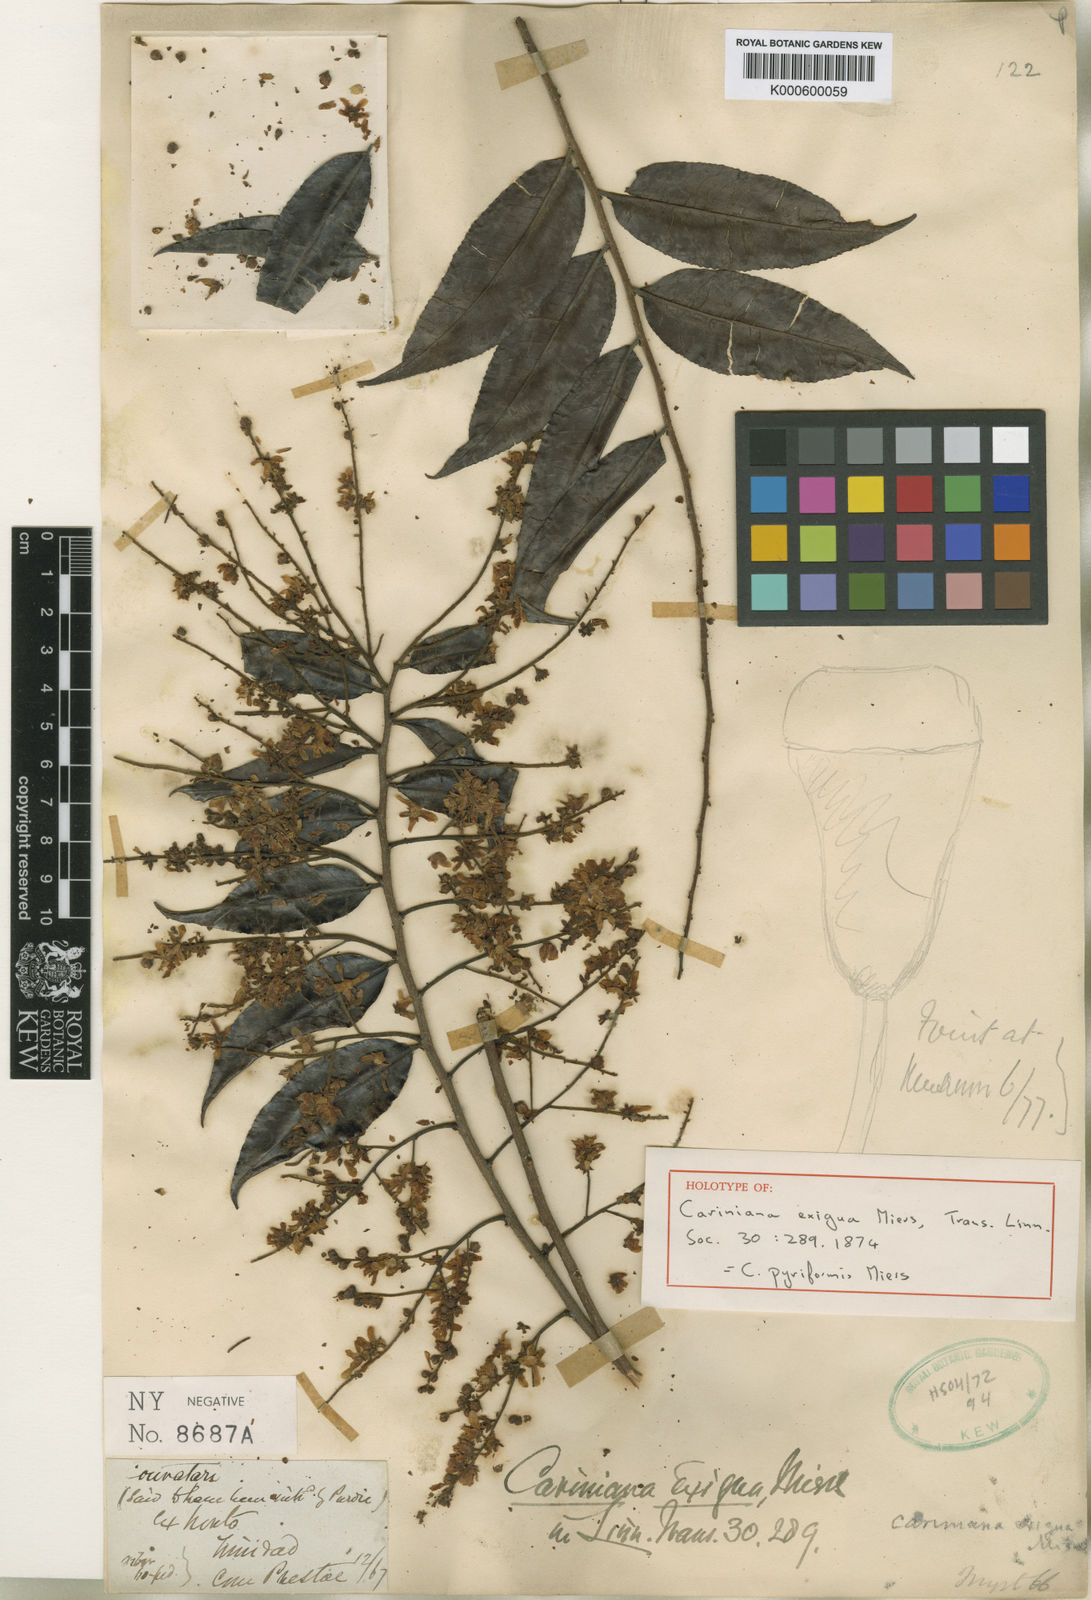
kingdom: Plantae
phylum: Tracheophyta
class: Magnoliopsida
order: Ericales
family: Lecythidaceae
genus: Cariniana
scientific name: Cariniana pyriformis
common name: Colombian mahogany
